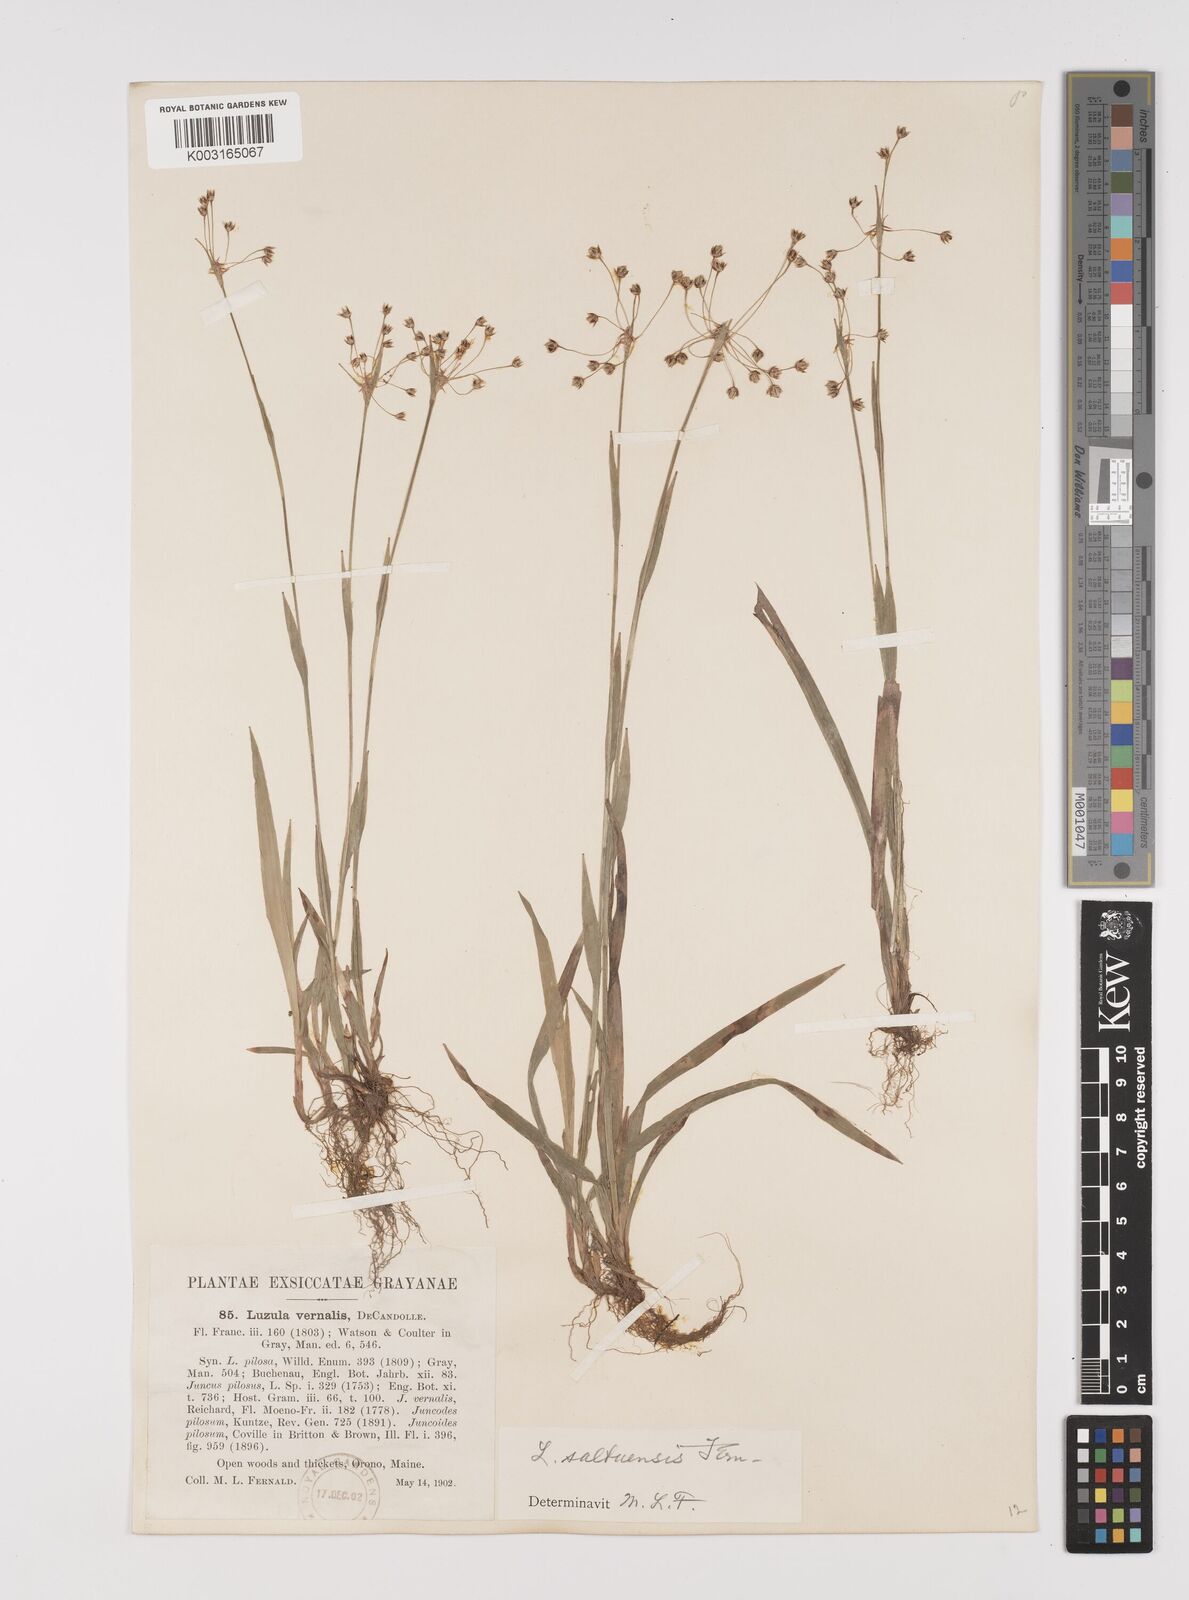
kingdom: Plantae
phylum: Tracheophyta
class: Liliopsida
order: Poales
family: Juncaceae
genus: Luzula
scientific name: Luzula acuminata
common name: Hairy woodrush
